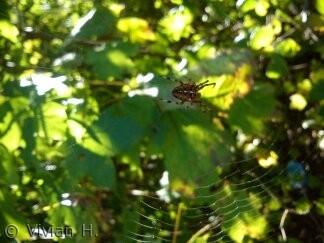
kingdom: Animalia
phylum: Arthropoda
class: Arachnida
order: Araneae
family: Araneidae
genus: Araneus
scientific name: Araneus diadematus
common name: Korsedderkop
